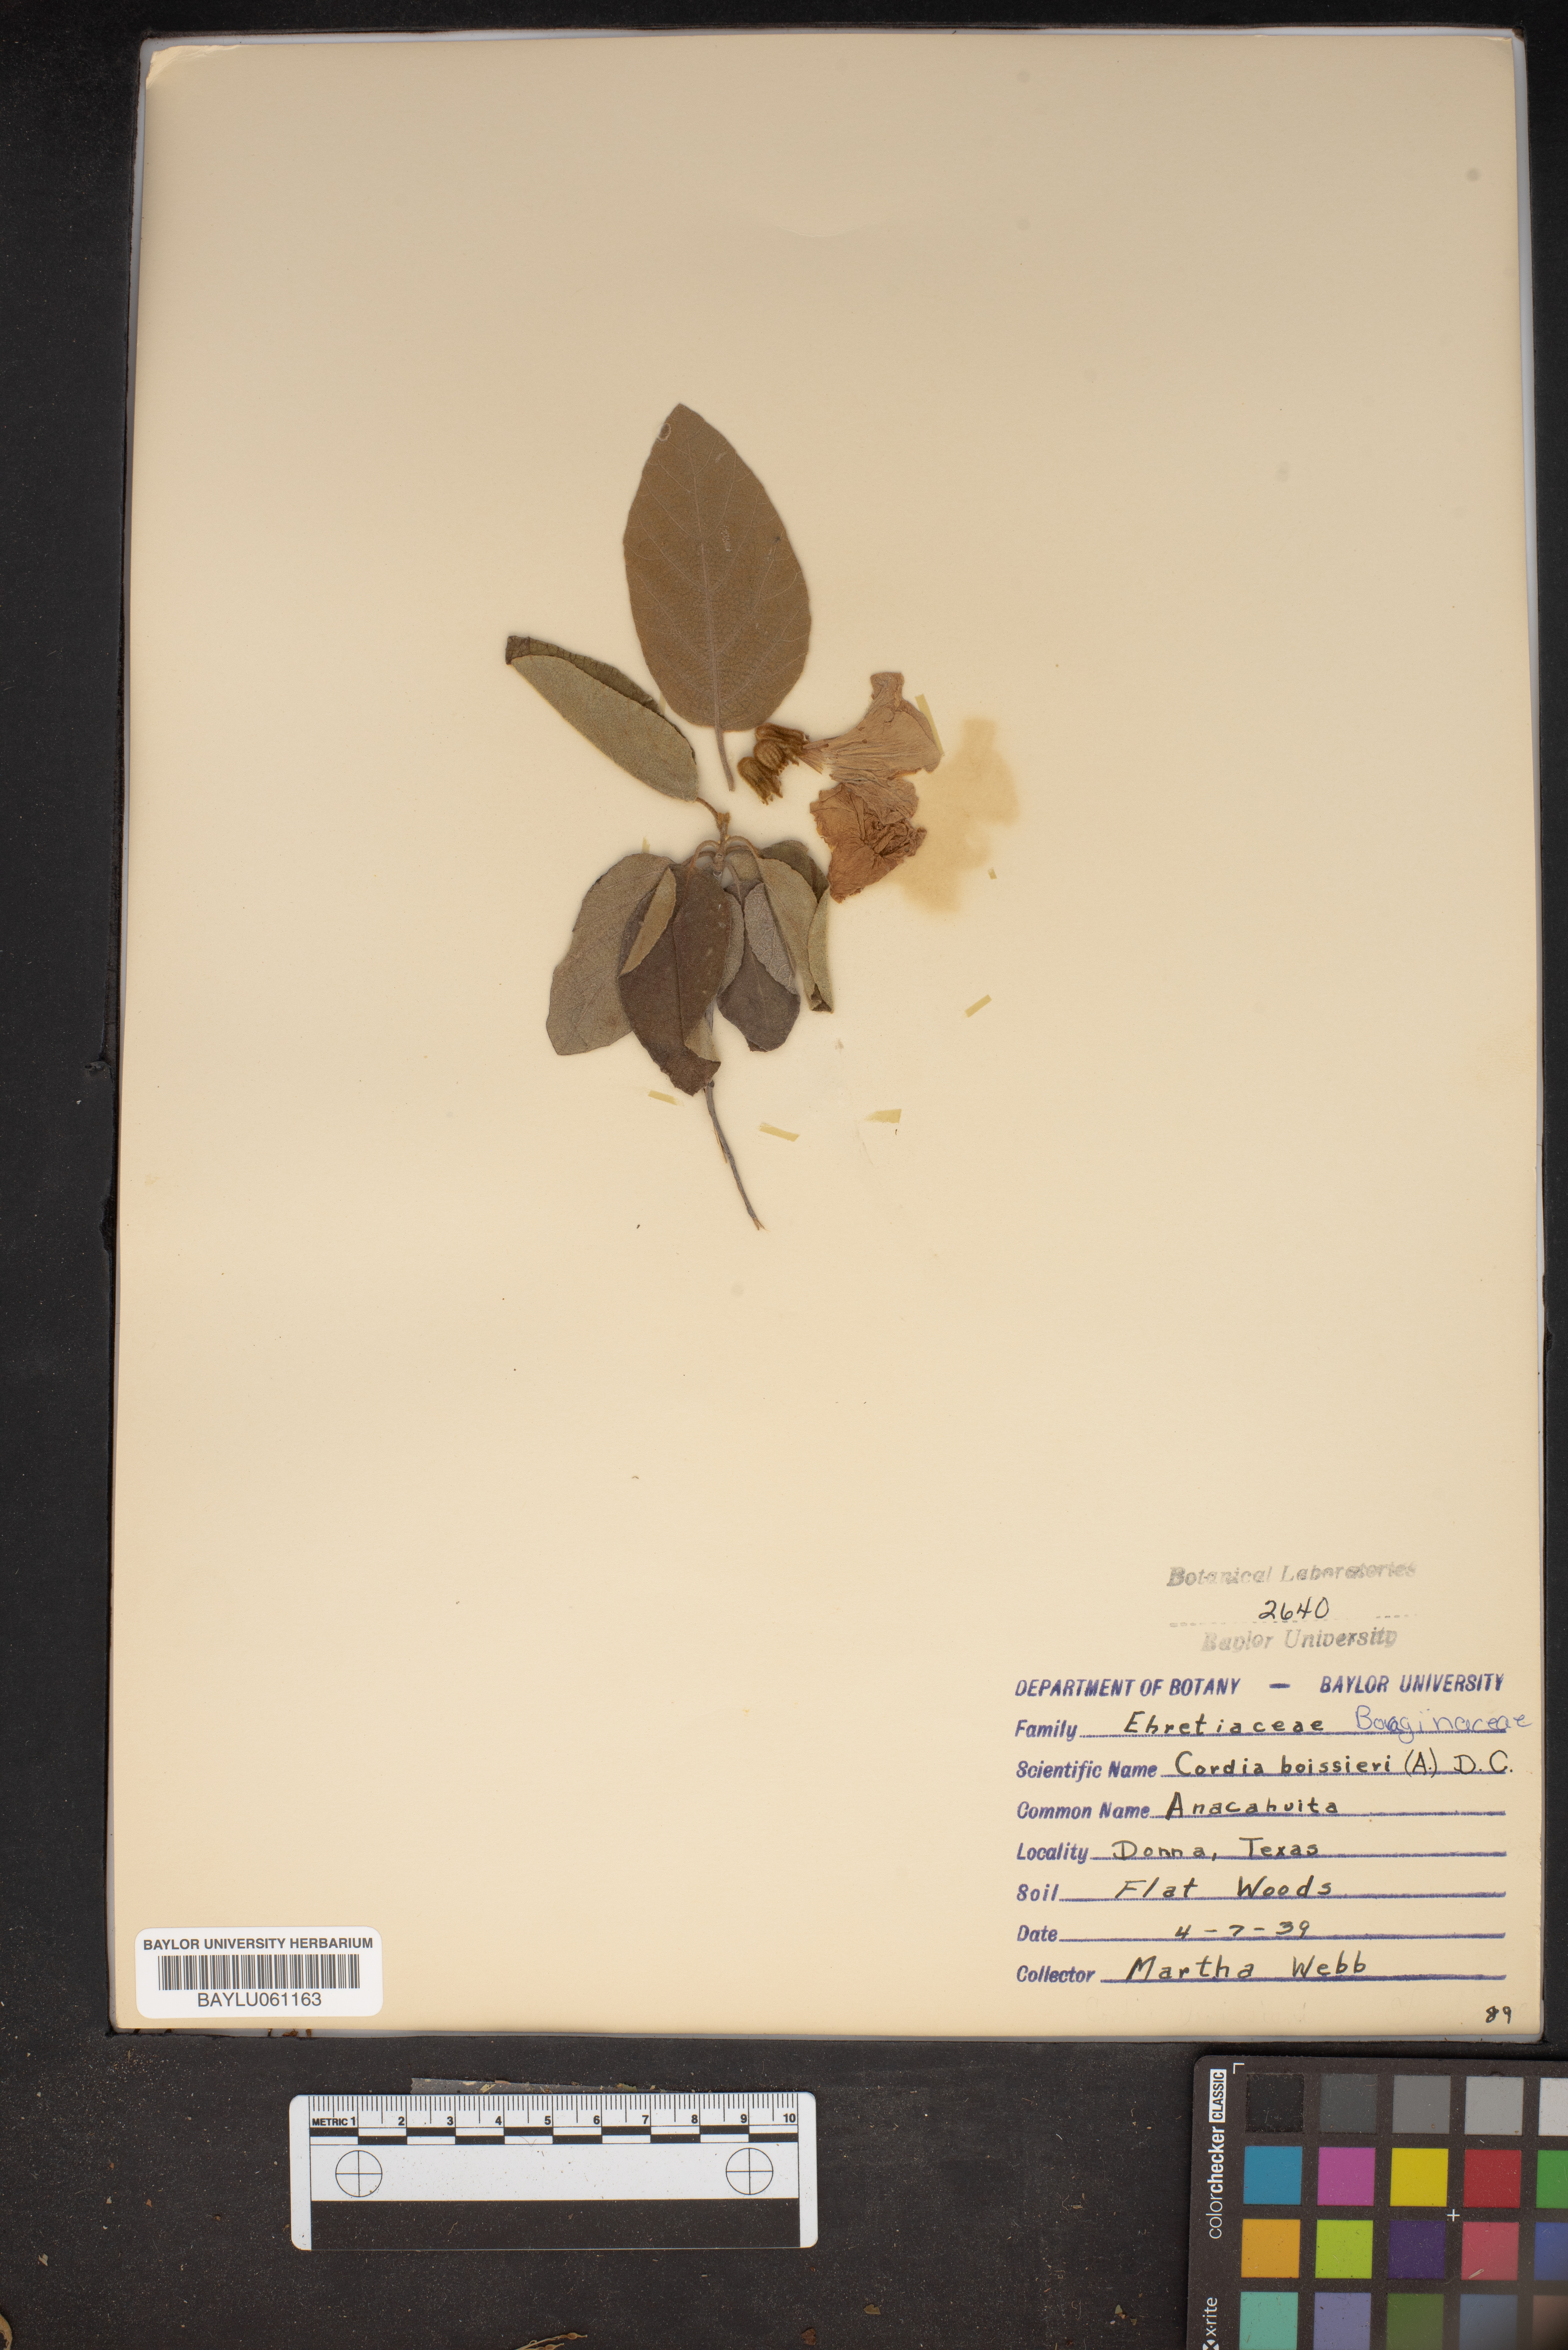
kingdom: Plantae
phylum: Tracheophyta
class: Magnoliopsida
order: Boraginales
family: Cordiaceae
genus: Cordia
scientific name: Cordia boissieri
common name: Mexican-olive
